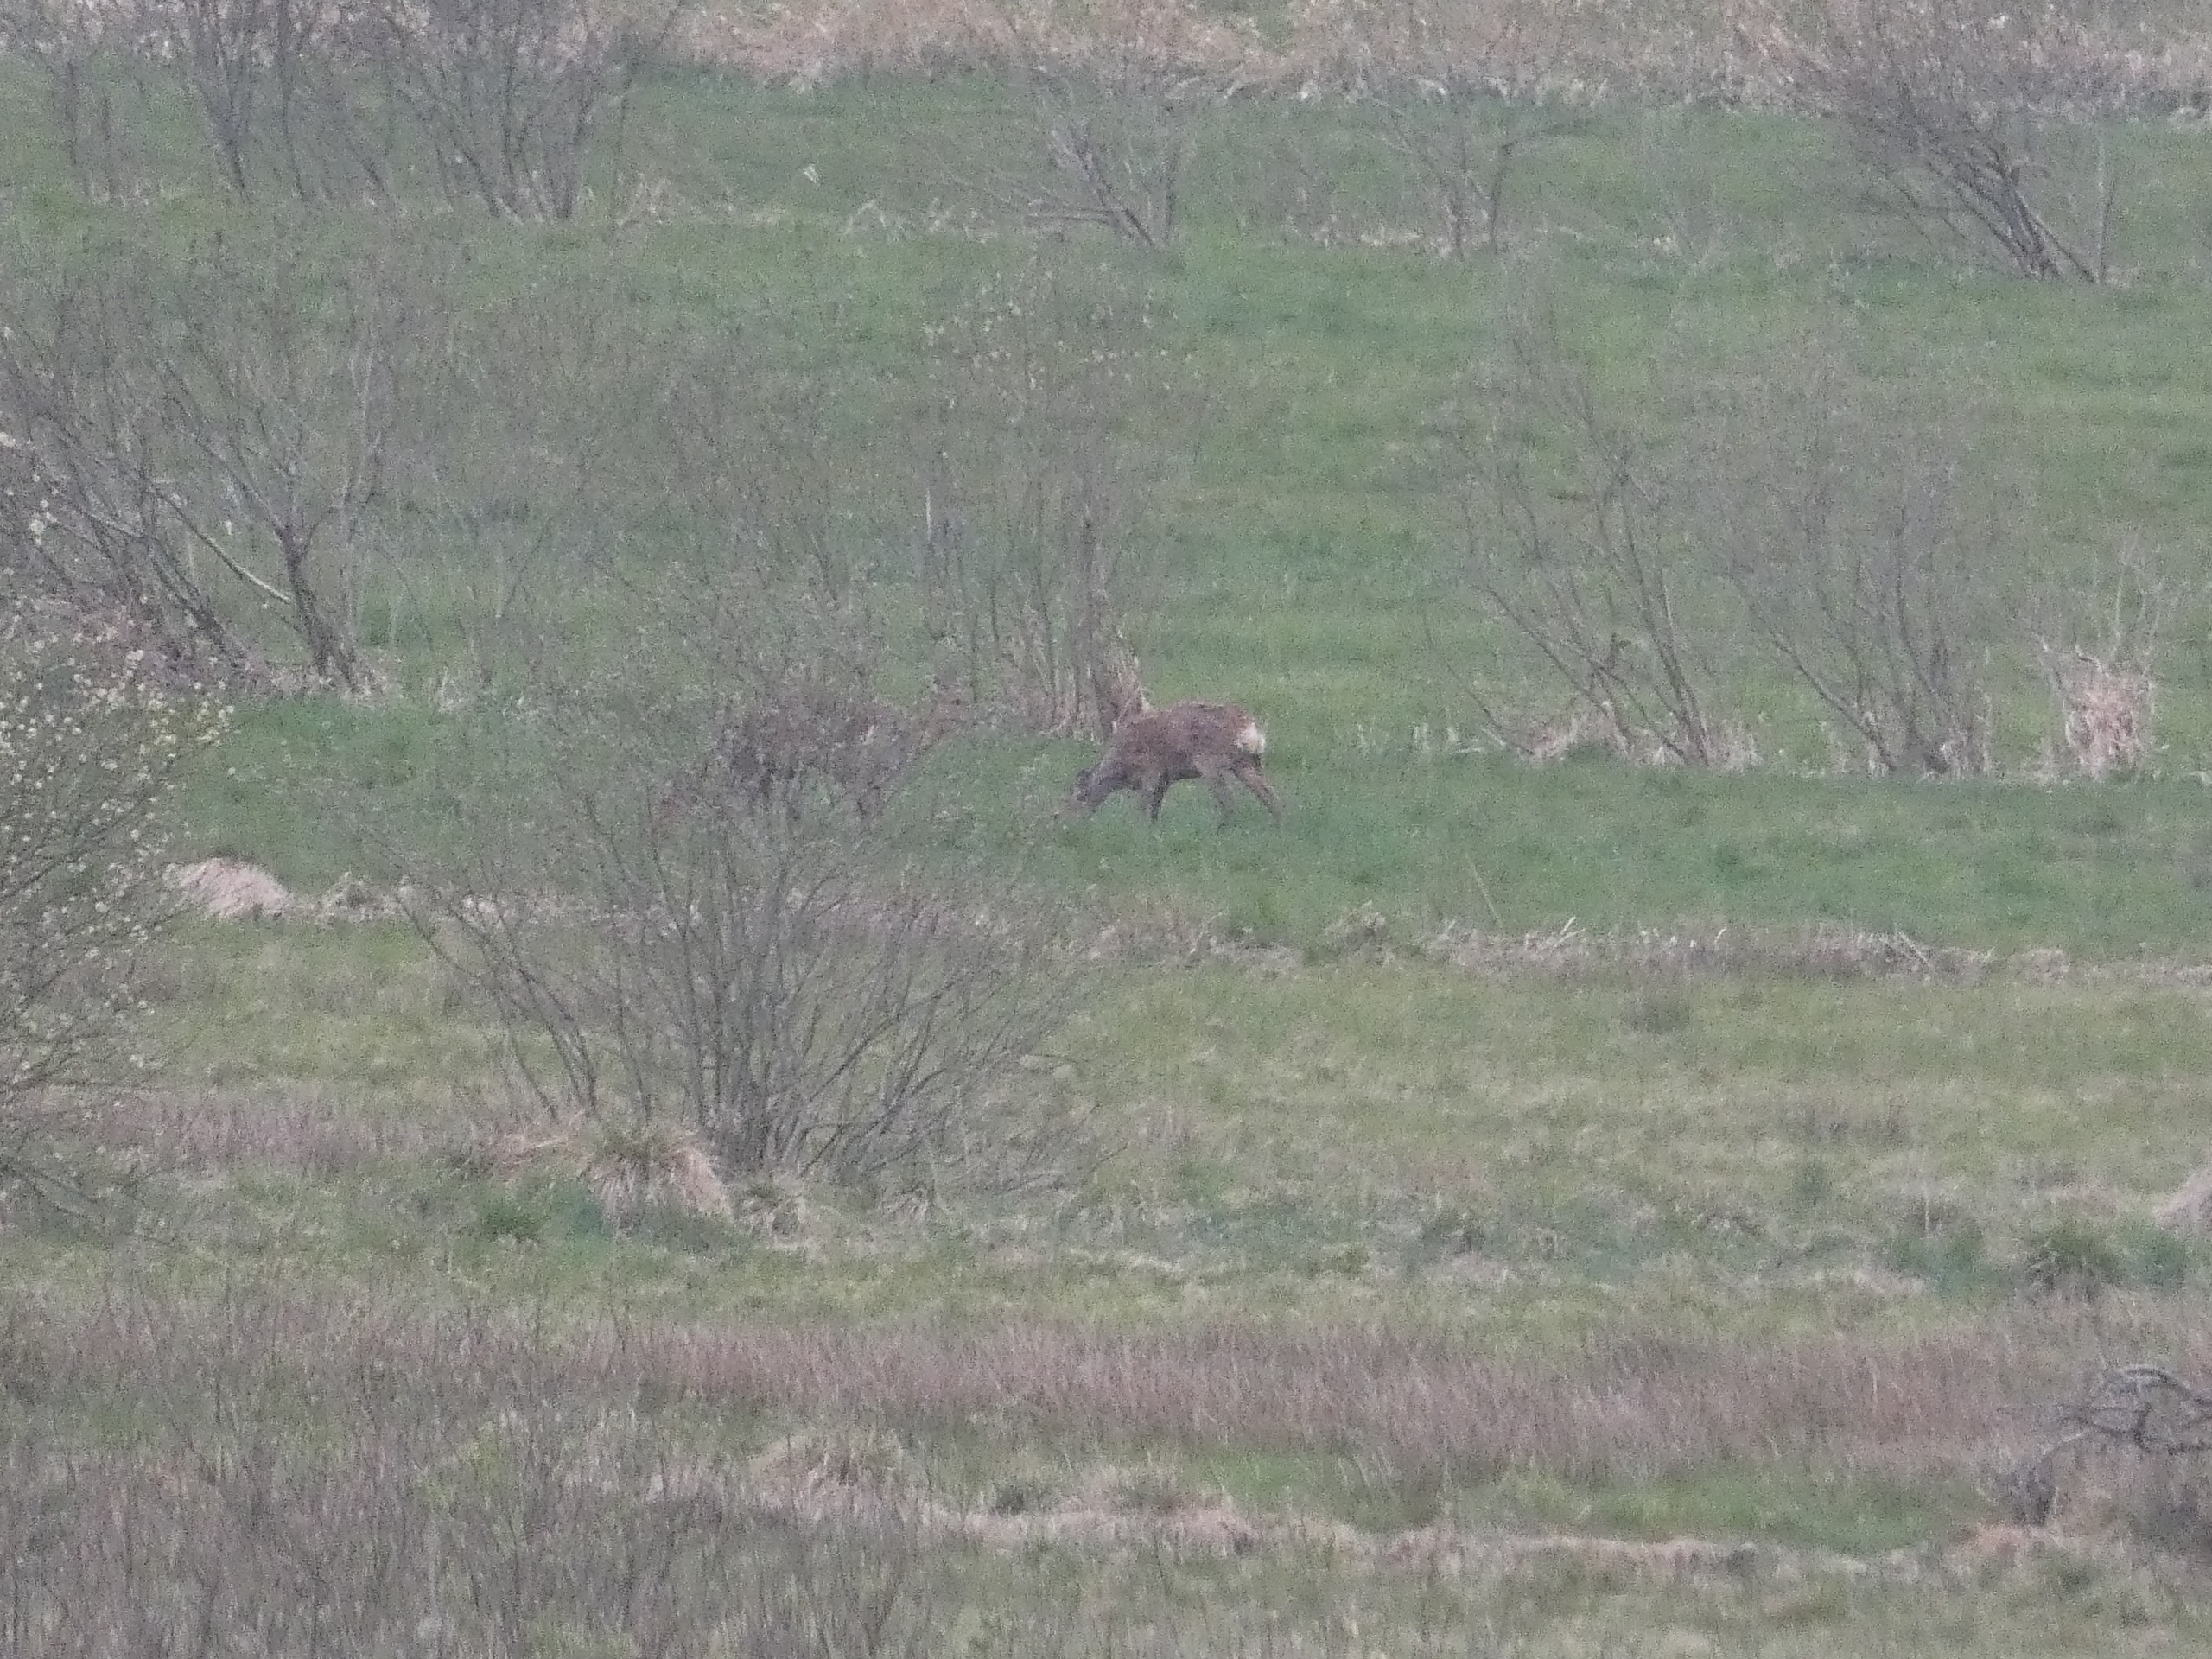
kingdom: Animalia
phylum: Chordata
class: Mammalia
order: Artiodactyla
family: Cervidae
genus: Capreolus
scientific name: Capreolus capreolus
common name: Rådyr
